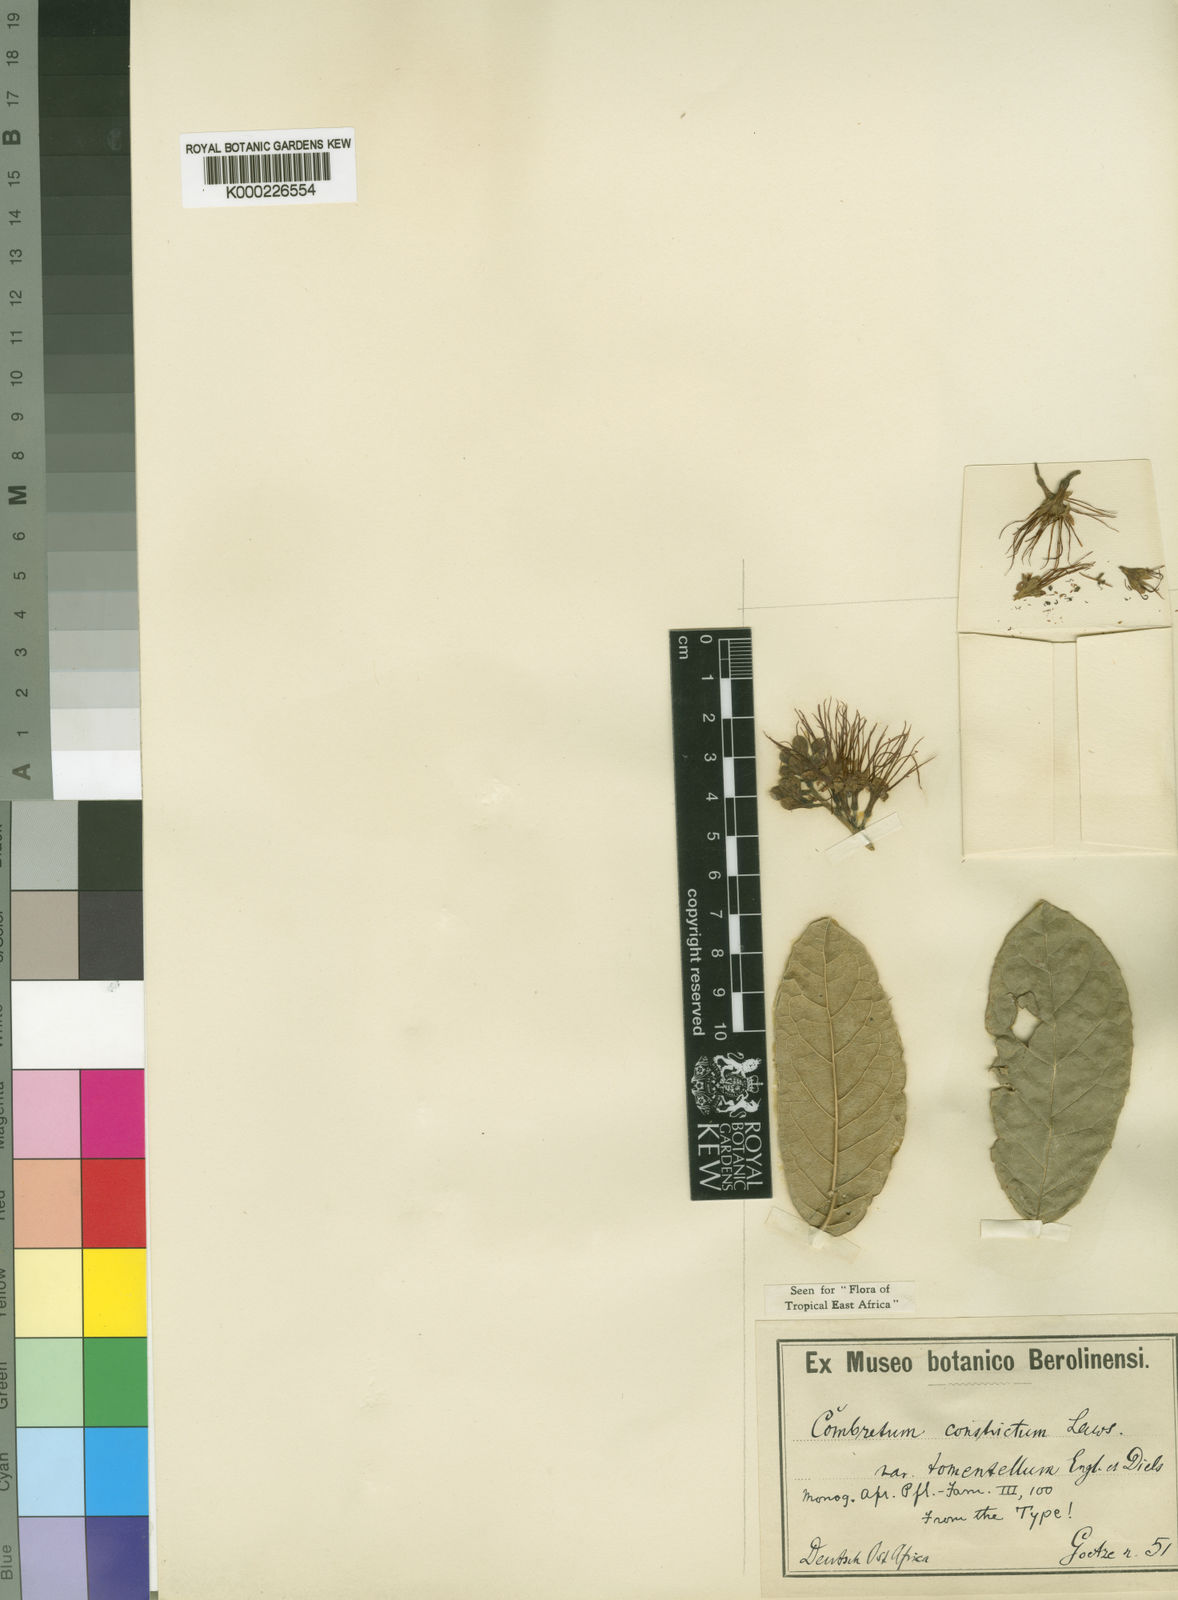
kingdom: Plantae
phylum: Tracheophyta
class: Magnoliopsida
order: Myrtales
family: Combretaceae
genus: Combretum
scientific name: Combretum constrictum
